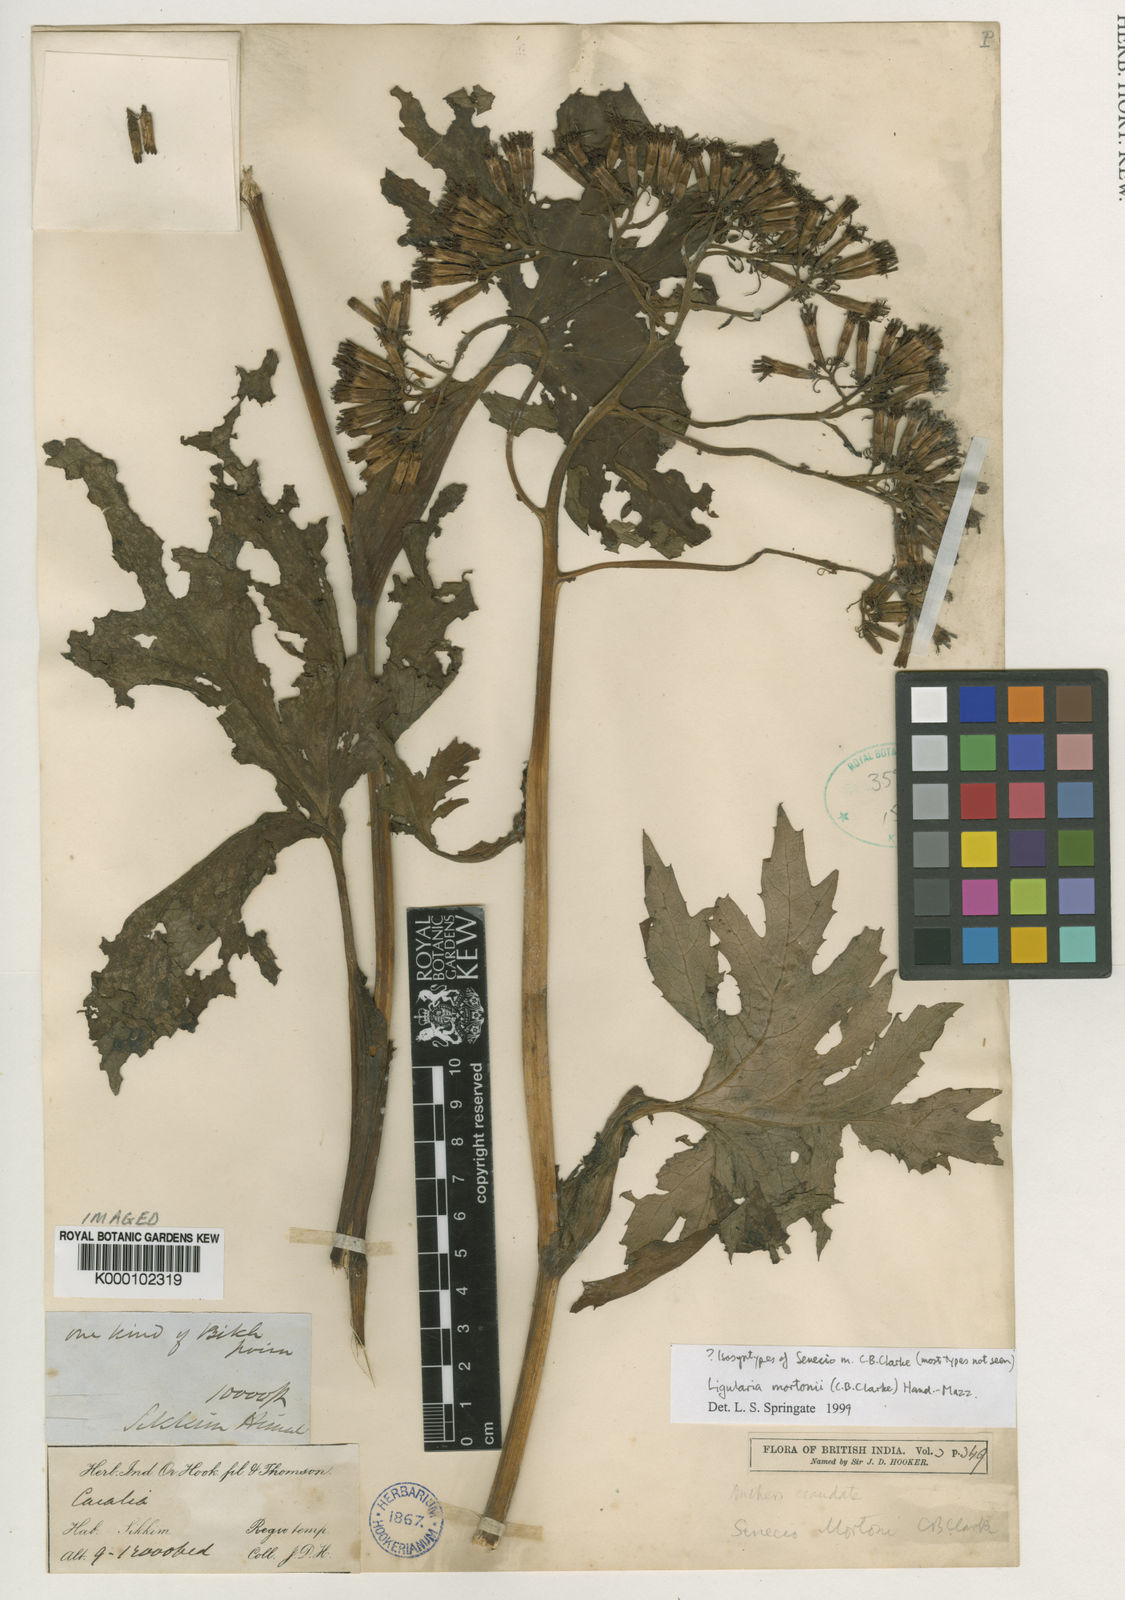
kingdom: Plantae
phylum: Tracheophyta
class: Magnoliopsida
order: Asterales
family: Asteraceae
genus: Ligularia
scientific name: Ligularia mortonii
